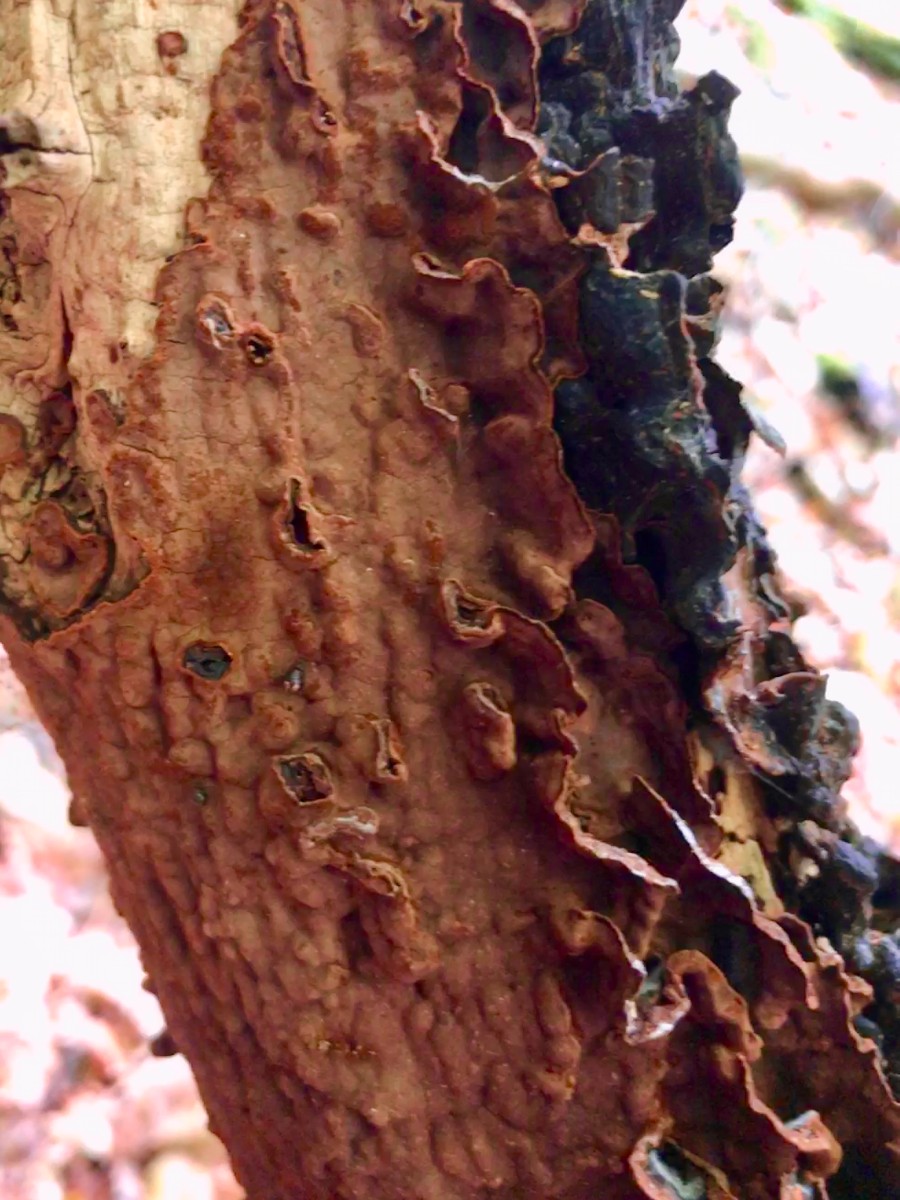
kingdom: Fungi
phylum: Basidiomycota
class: Agaricomycetes
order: Hymenochaetales
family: Hymenochaetaceae
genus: Hymenochaete
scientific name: Hymenochaete rubiginosa
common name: stiv ruslædersvamp
